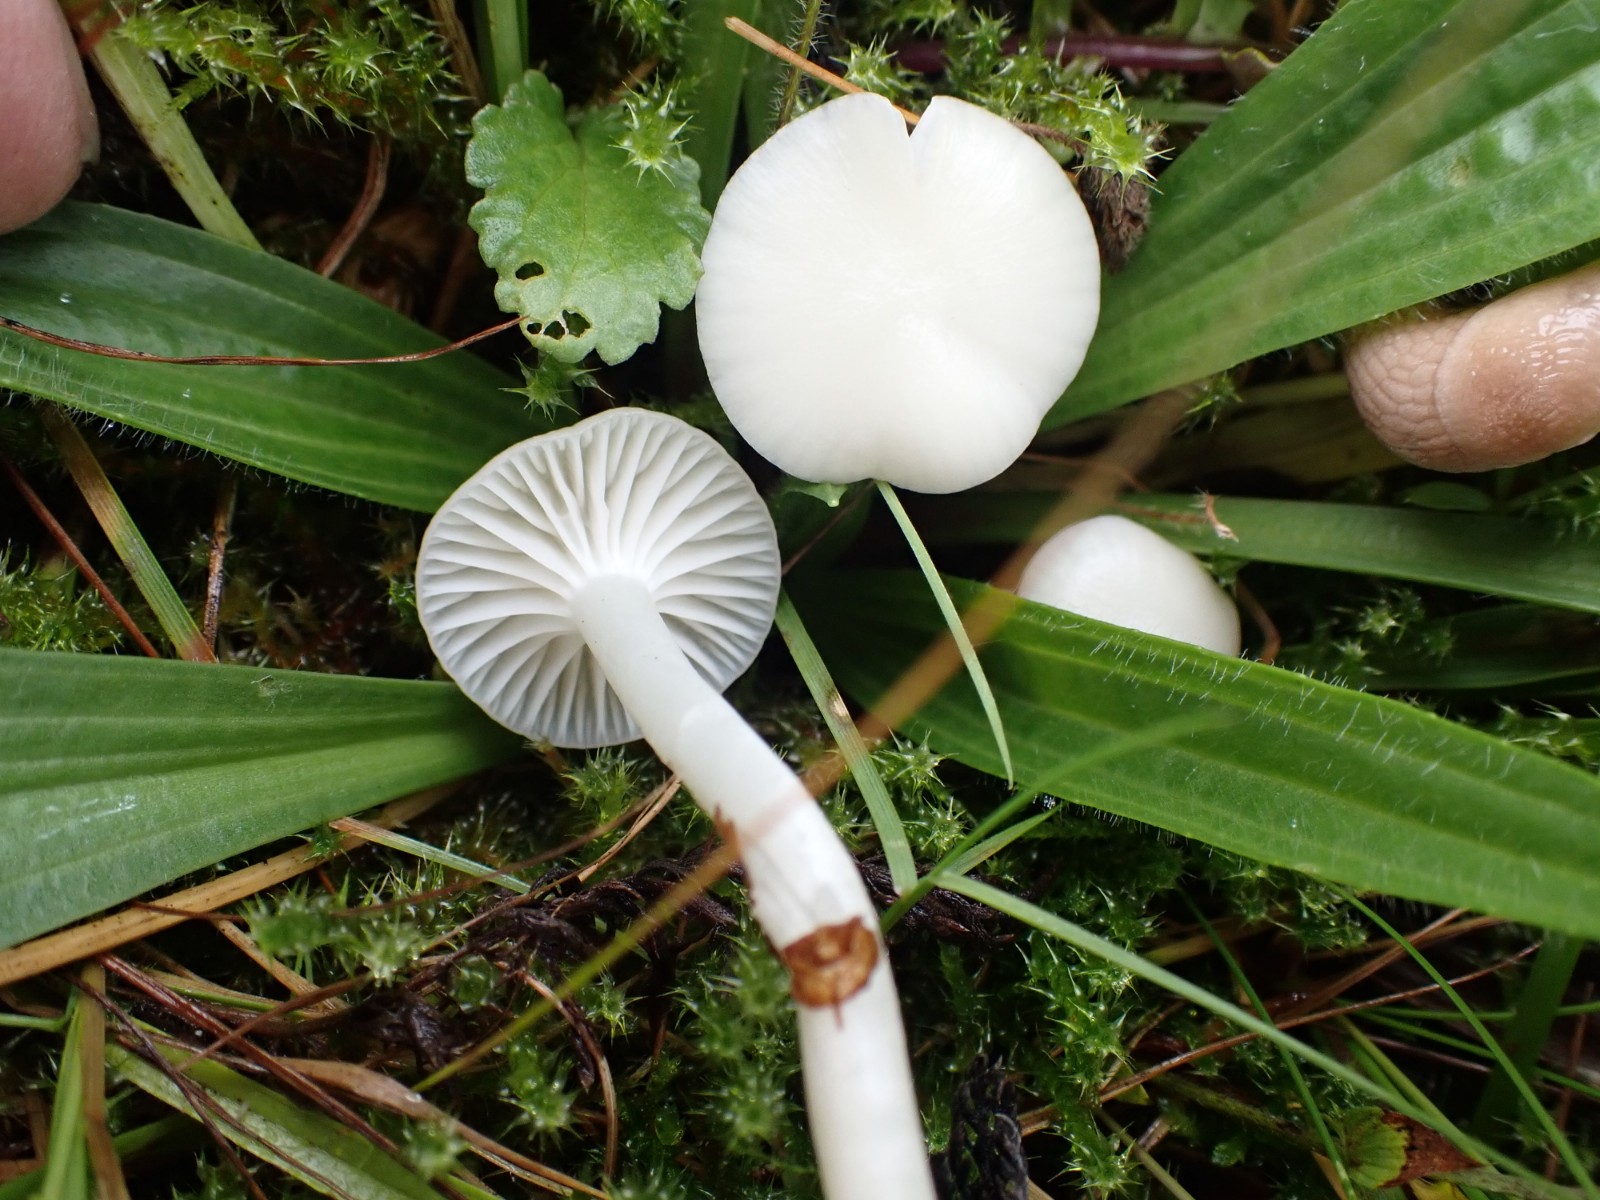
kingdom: Fungi
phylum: Basidiomycota
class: Agaricomycetes
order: Agaricales
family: Hygrophoraceae
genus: Cuphophyllus
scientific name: Cuphophyllus virgineus
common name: snehvid vokshat
